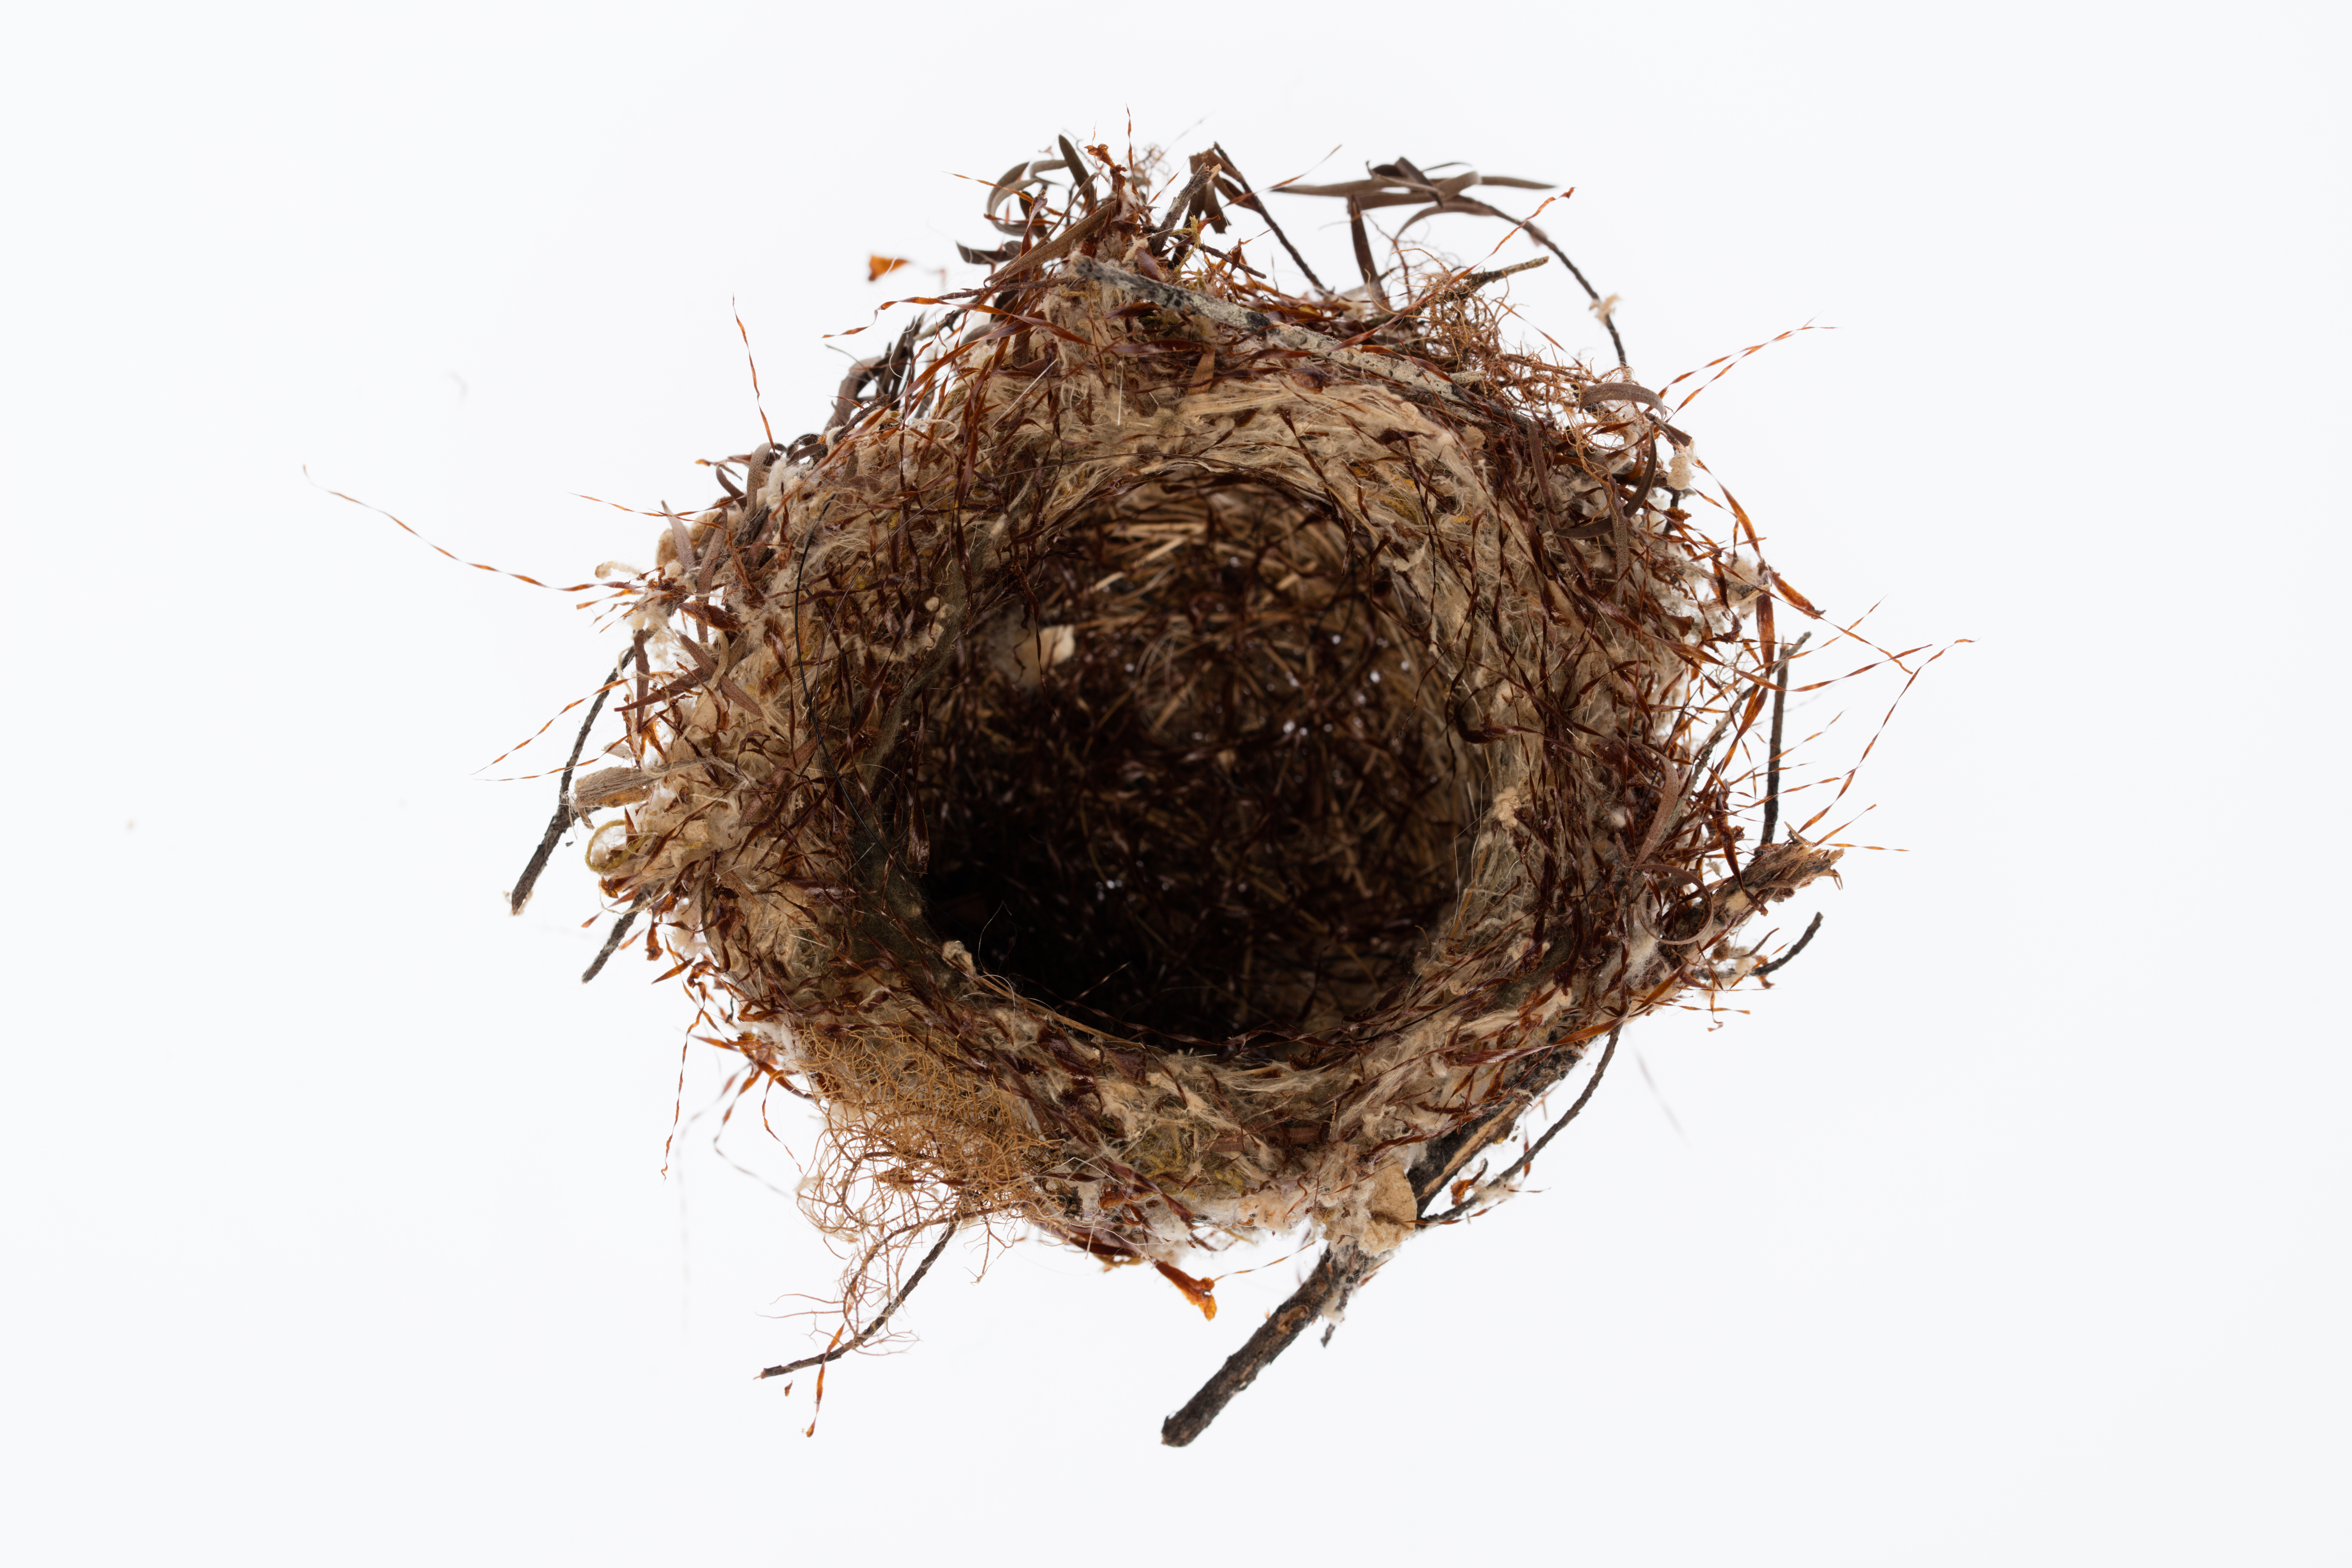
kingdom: Animalia
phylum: Chordata
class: Aves
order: Passeriformes
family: Zosteropidae
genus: Zosterops
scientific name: Zosterops lateralis
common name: Silvereye
